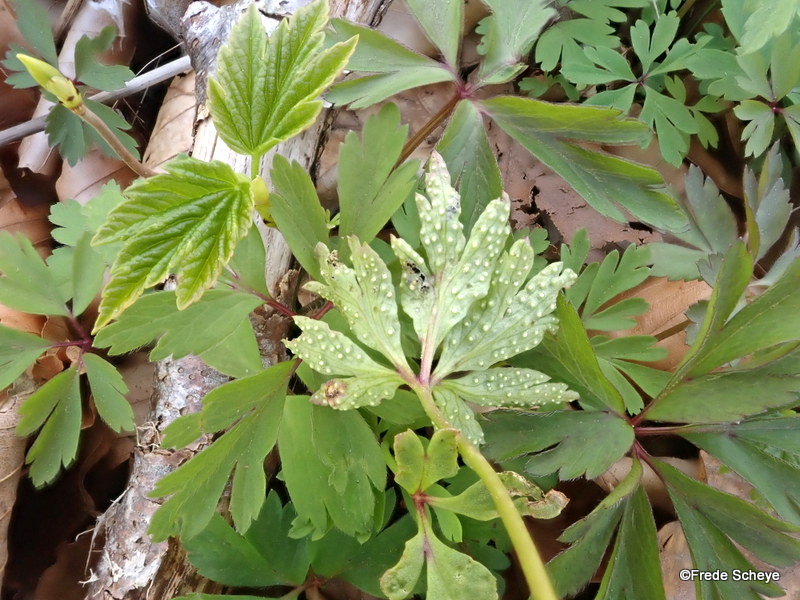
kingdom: Fungi
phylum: Basidiomycota
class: Pucciniomycetes
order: Pucciniales
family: Ochropsoraceae
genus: Ochropsora
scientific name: Ochropsora ariae
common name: anemone-okkerpletrust
